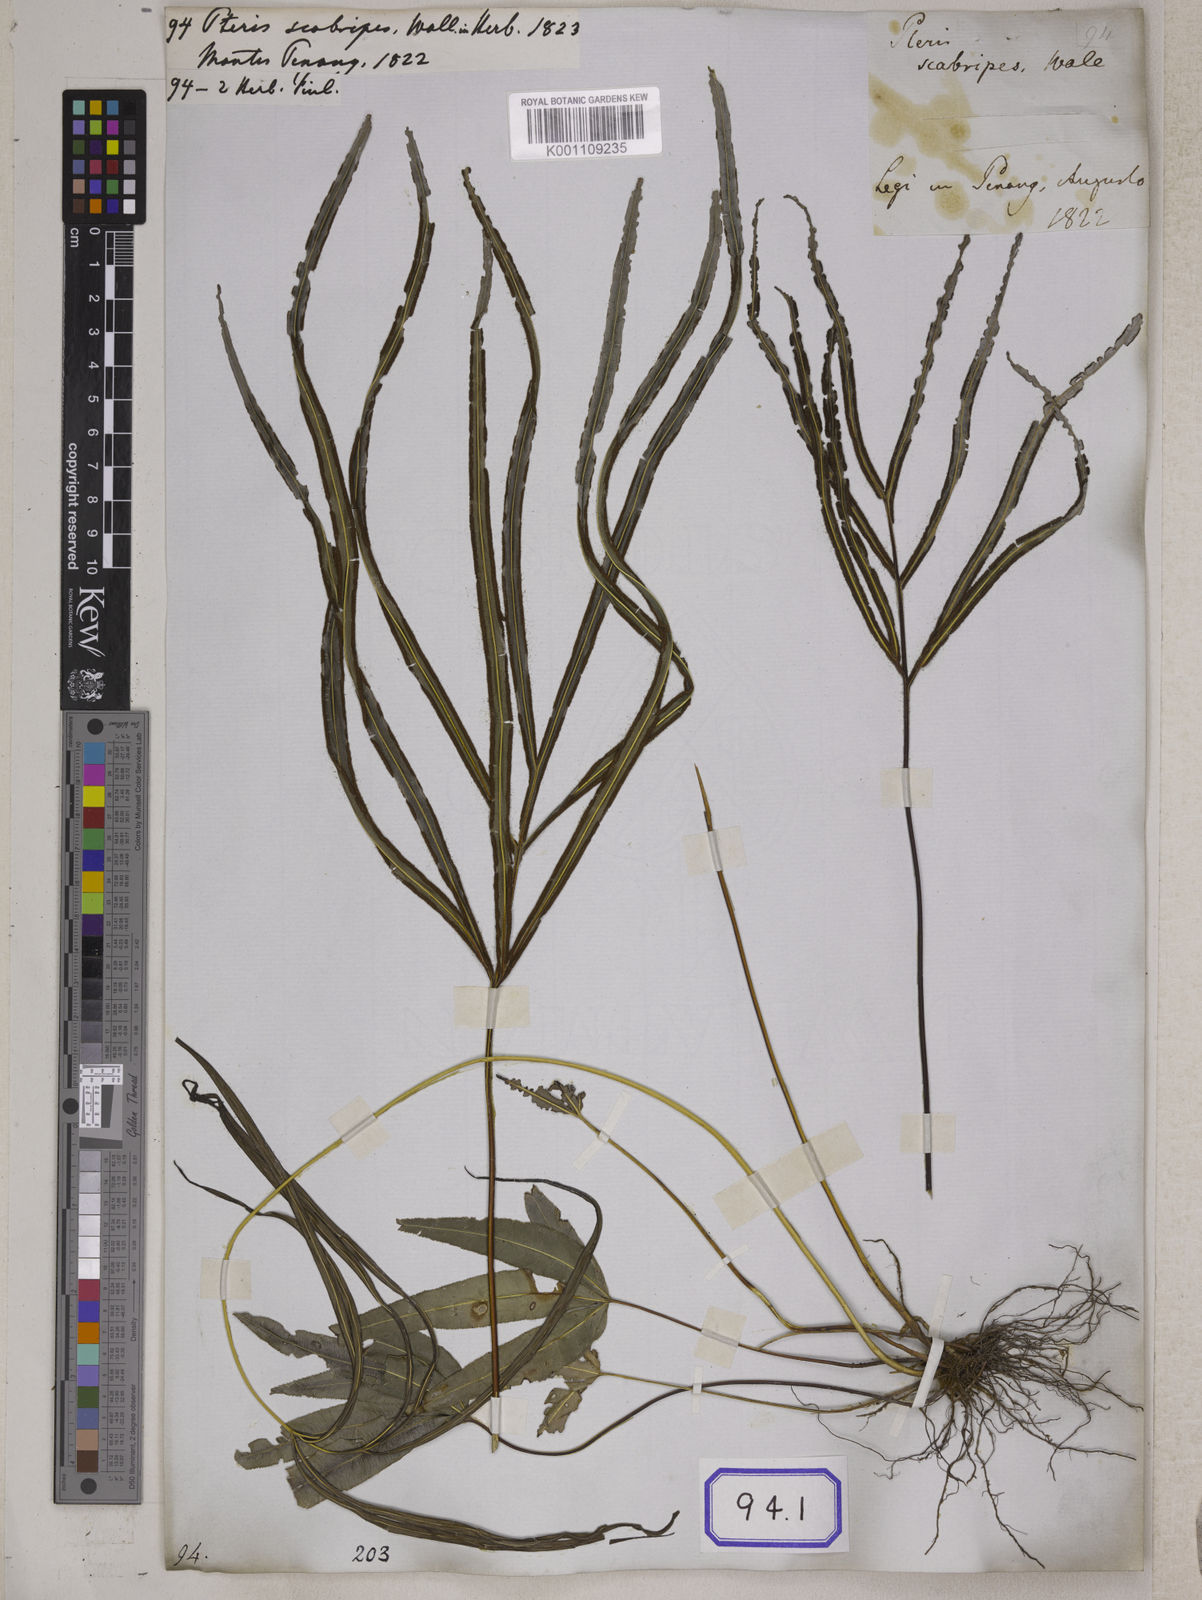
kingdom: Plantae
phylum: Tracheophyta
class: Polypodiopsida
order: Polypodiales
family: Pteridaceae
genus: Pteris
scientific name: Pteris scabripes
